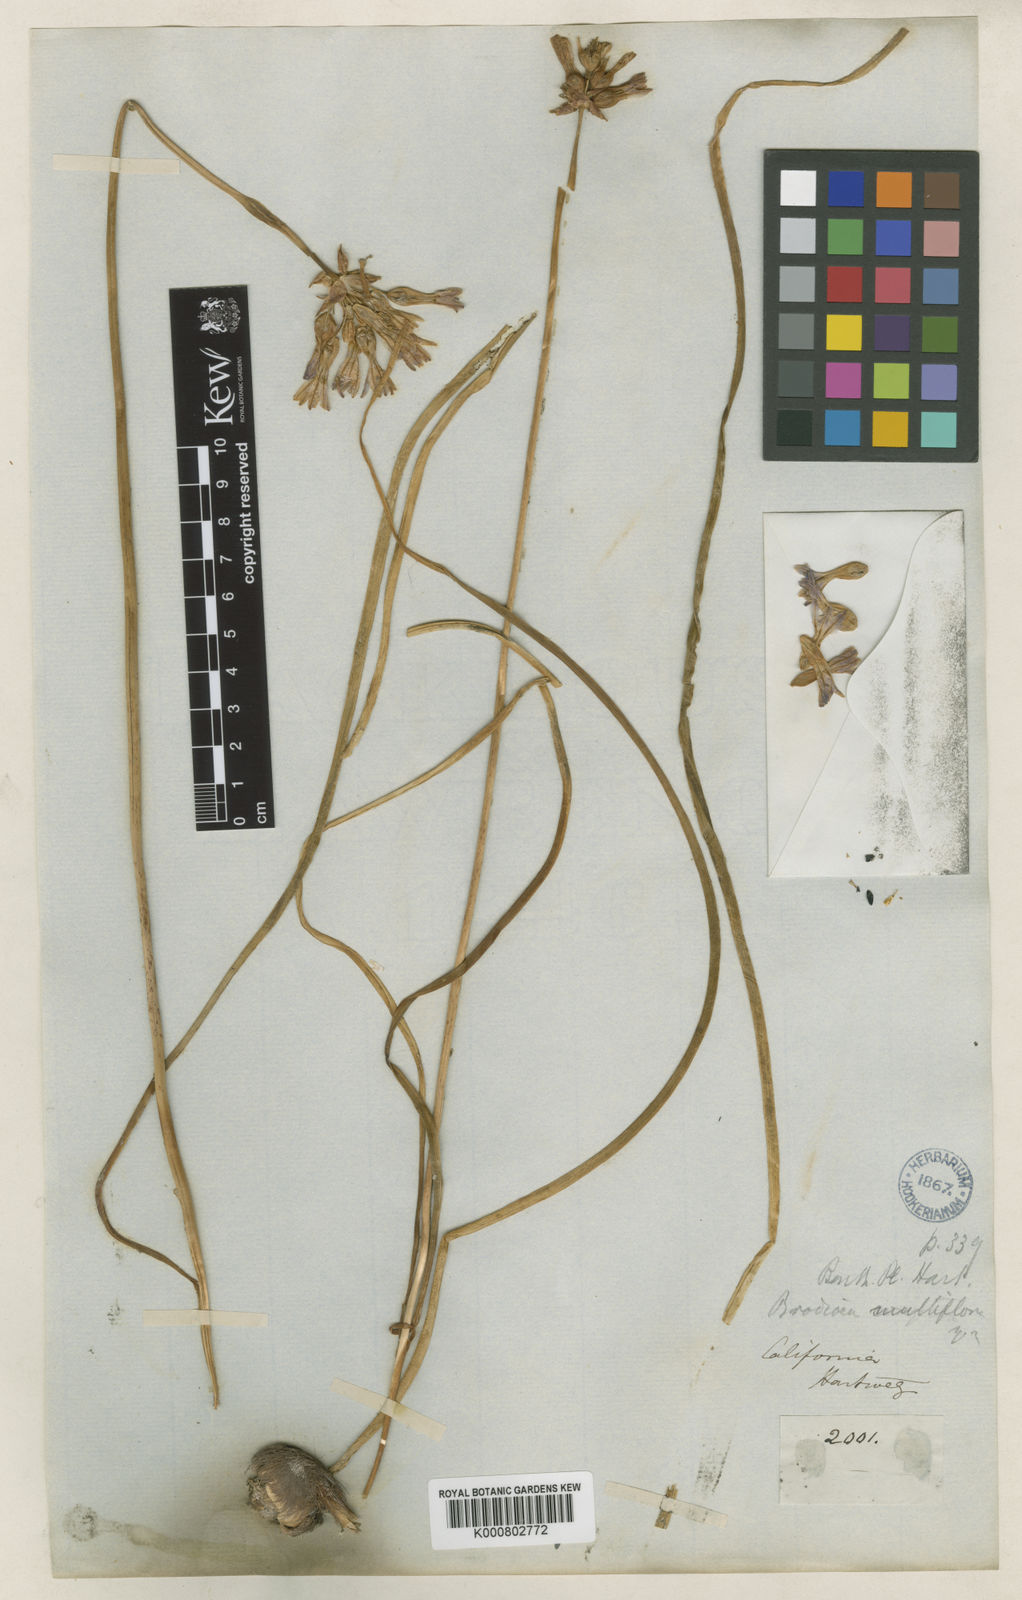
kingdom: Plantae
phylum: Tracheophyta
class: Liliopsida
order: Asparagales
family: Asparagaceae
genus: Dichelostemma
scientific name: Dichelostemma multiflorum
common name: Round-tooth ookow
